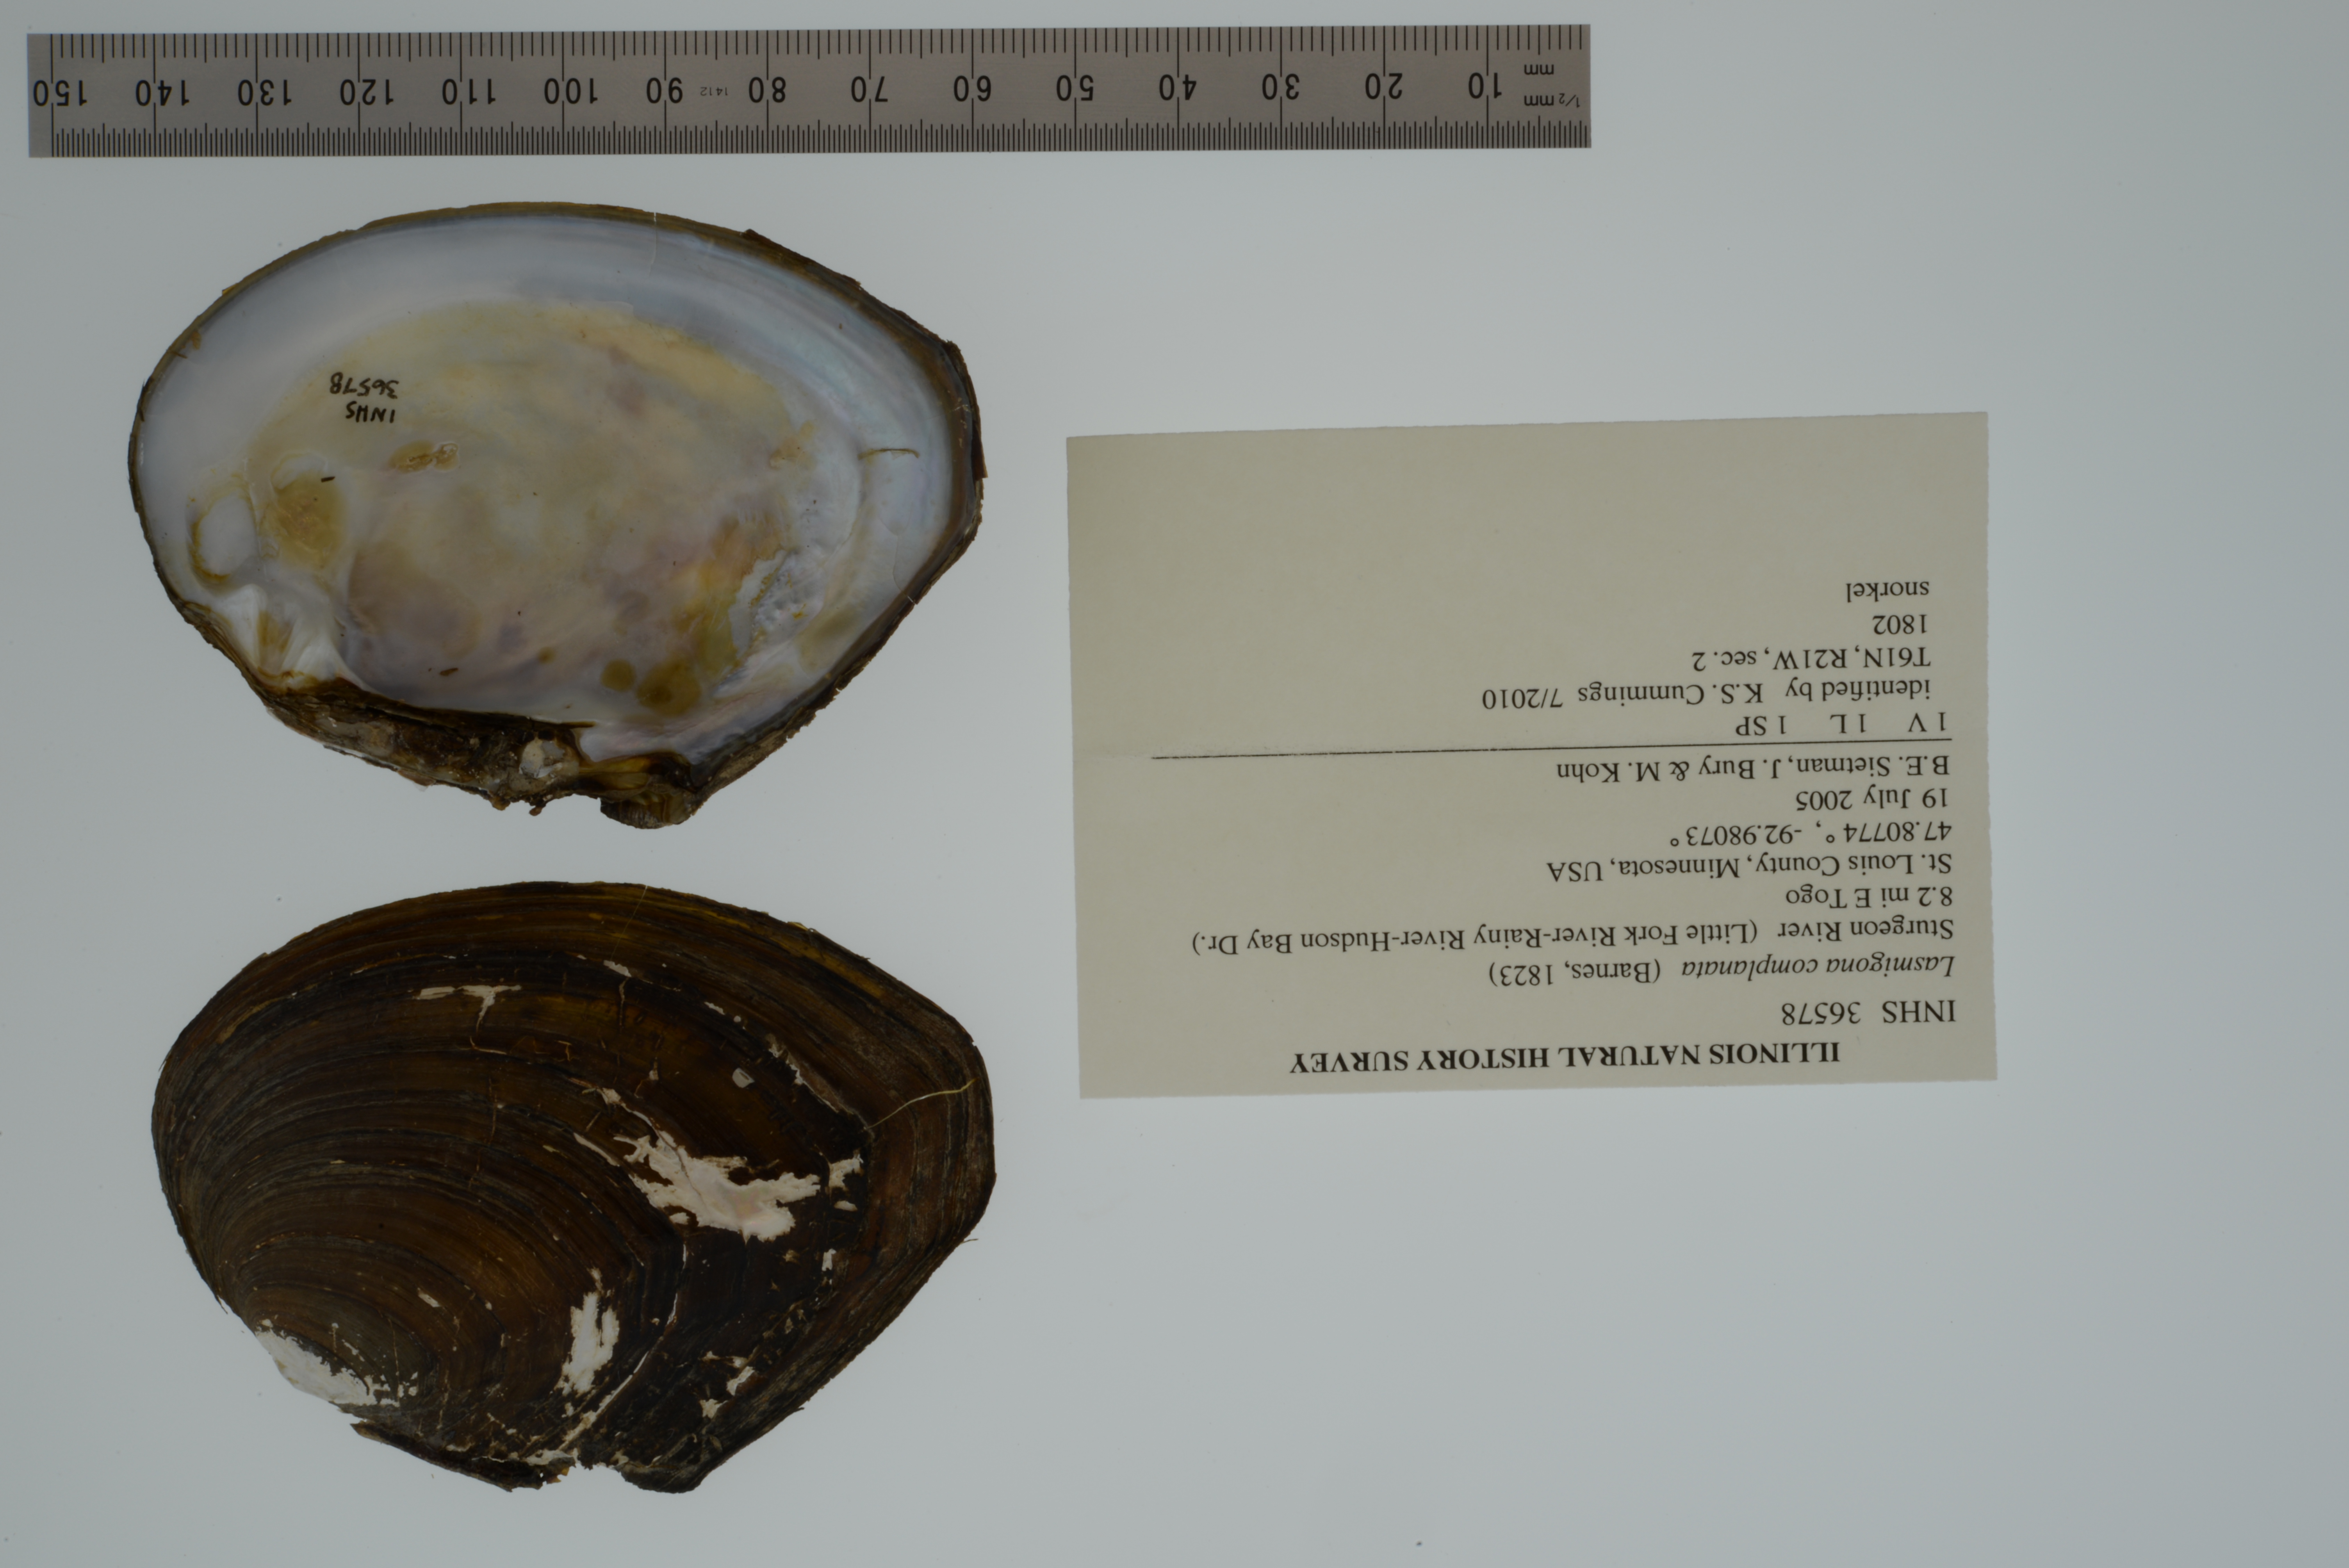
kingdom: Animalia
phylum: Mollusca
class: Bivalvia
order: Unionida
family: Unionidae
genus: Lasmigona
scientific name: Lasmigona complanata
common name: White heelsplitter
